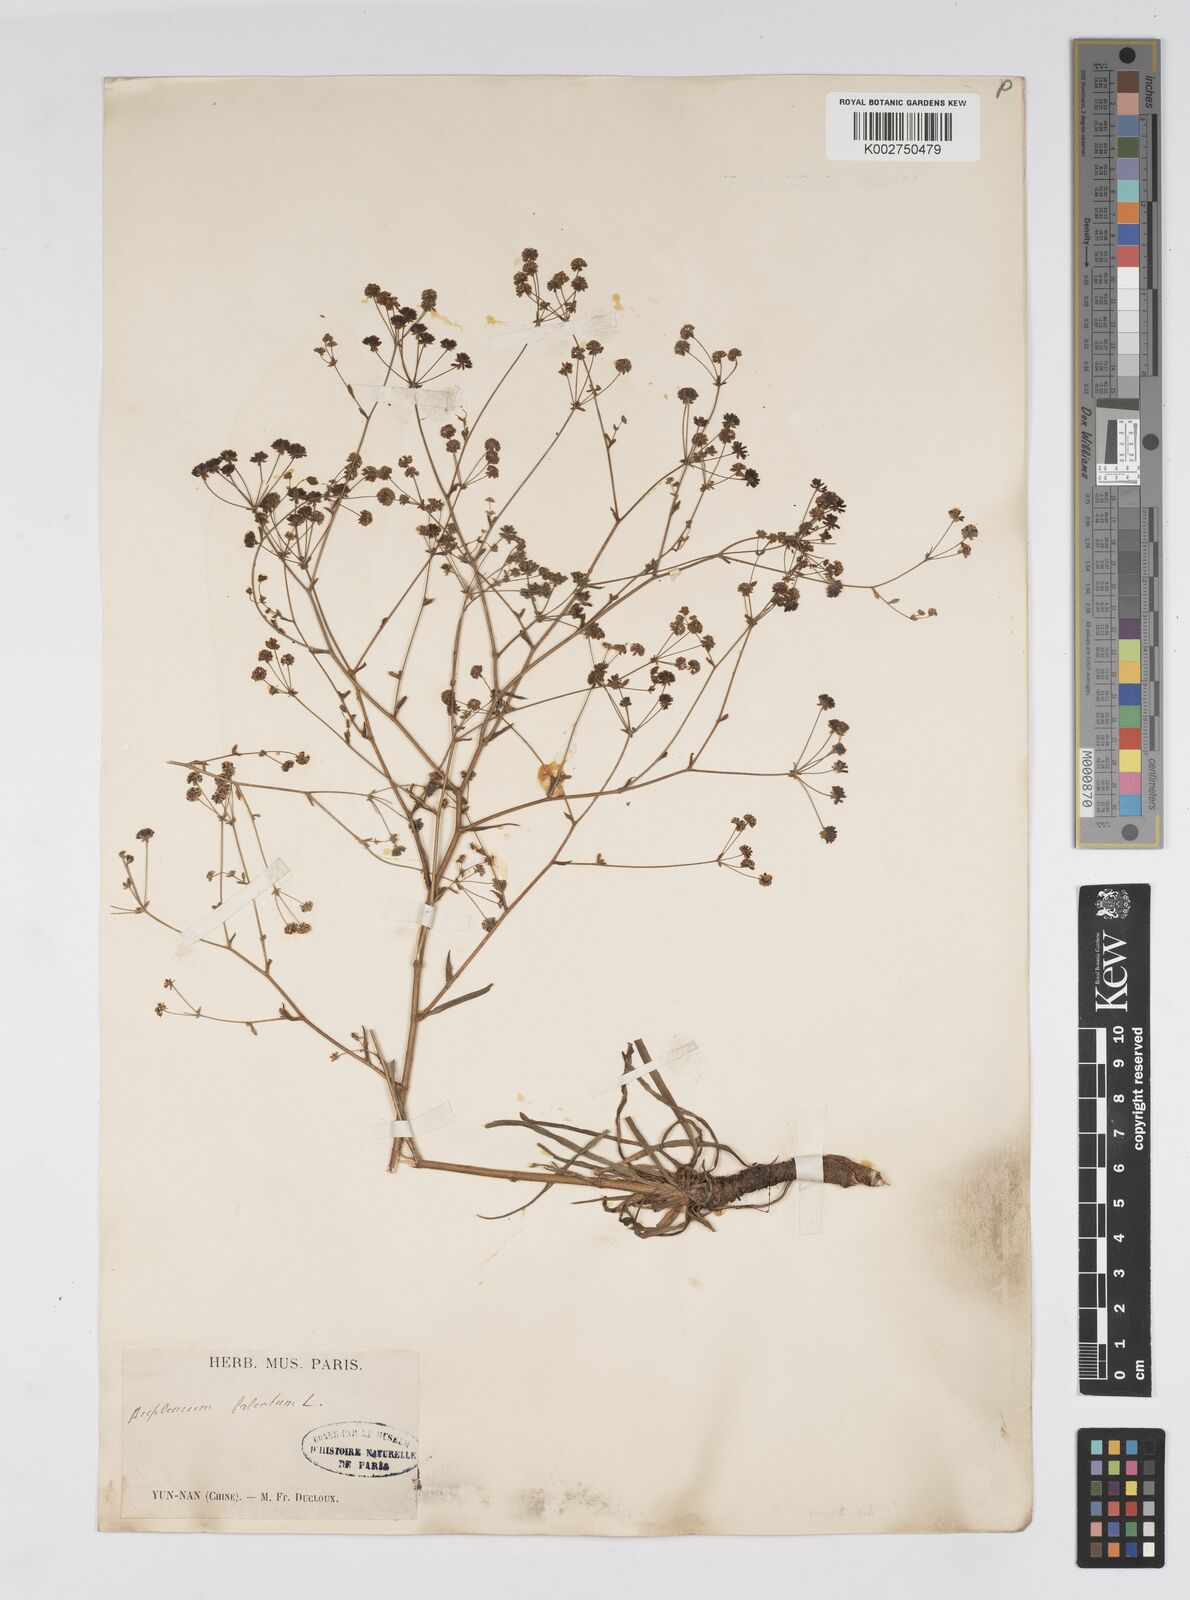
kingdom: Plantae
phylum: Tracheophyta
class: Magnoliopsida
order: Apiales
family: Apiaceae
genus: Bupleurum
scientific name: Bupleurum krylovianum
